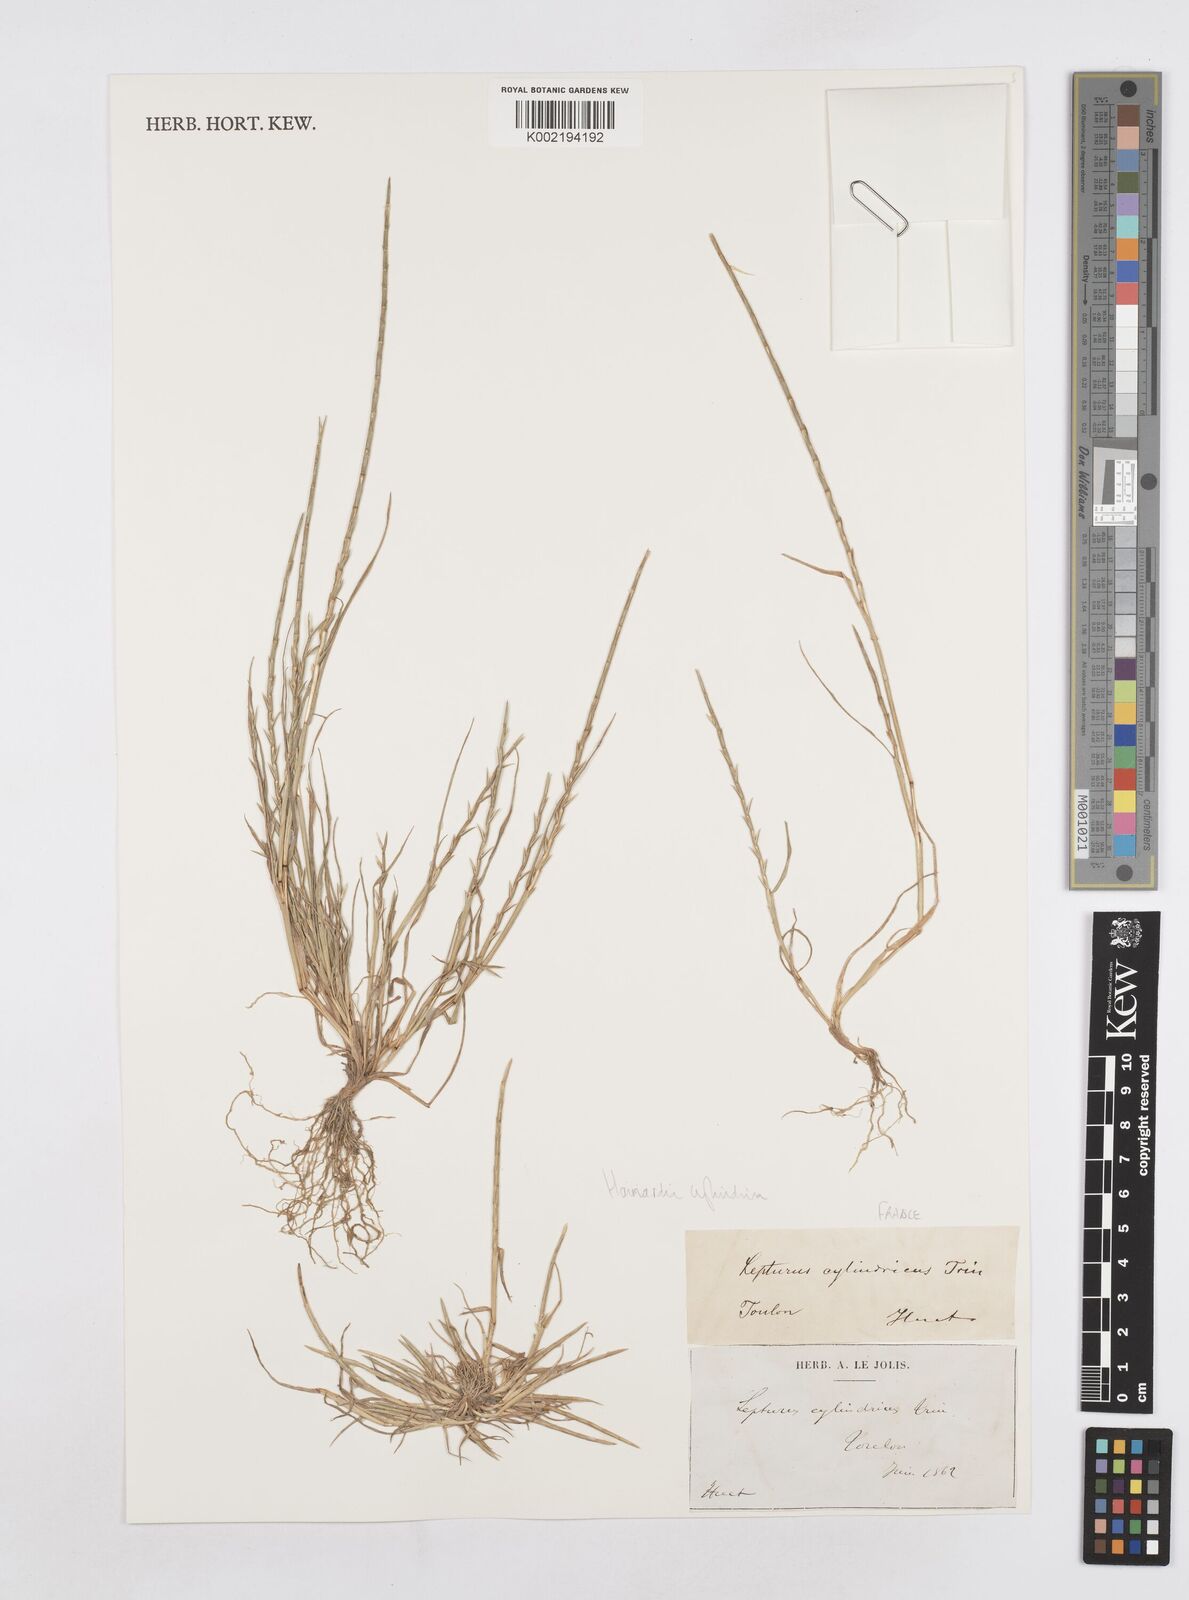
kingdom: Plantae
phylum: Tracheophyta
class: Liliopsida
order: Poales
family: Poaceae
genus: Parapholis
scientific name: Parapholis cylindrica
